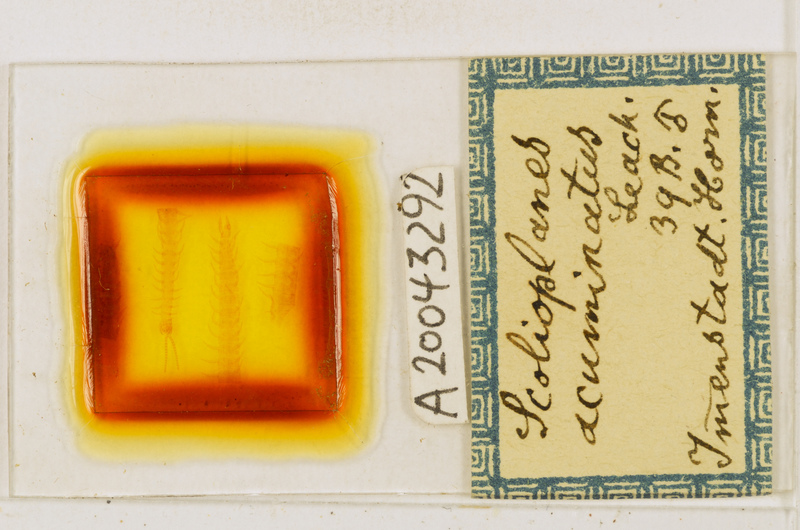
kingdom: Animalia
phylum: Arthropoda
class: Chilopoda
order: Geophilomorpha
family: Linotaeniidae
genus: Strigamia
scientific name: Strigamia acuminata
